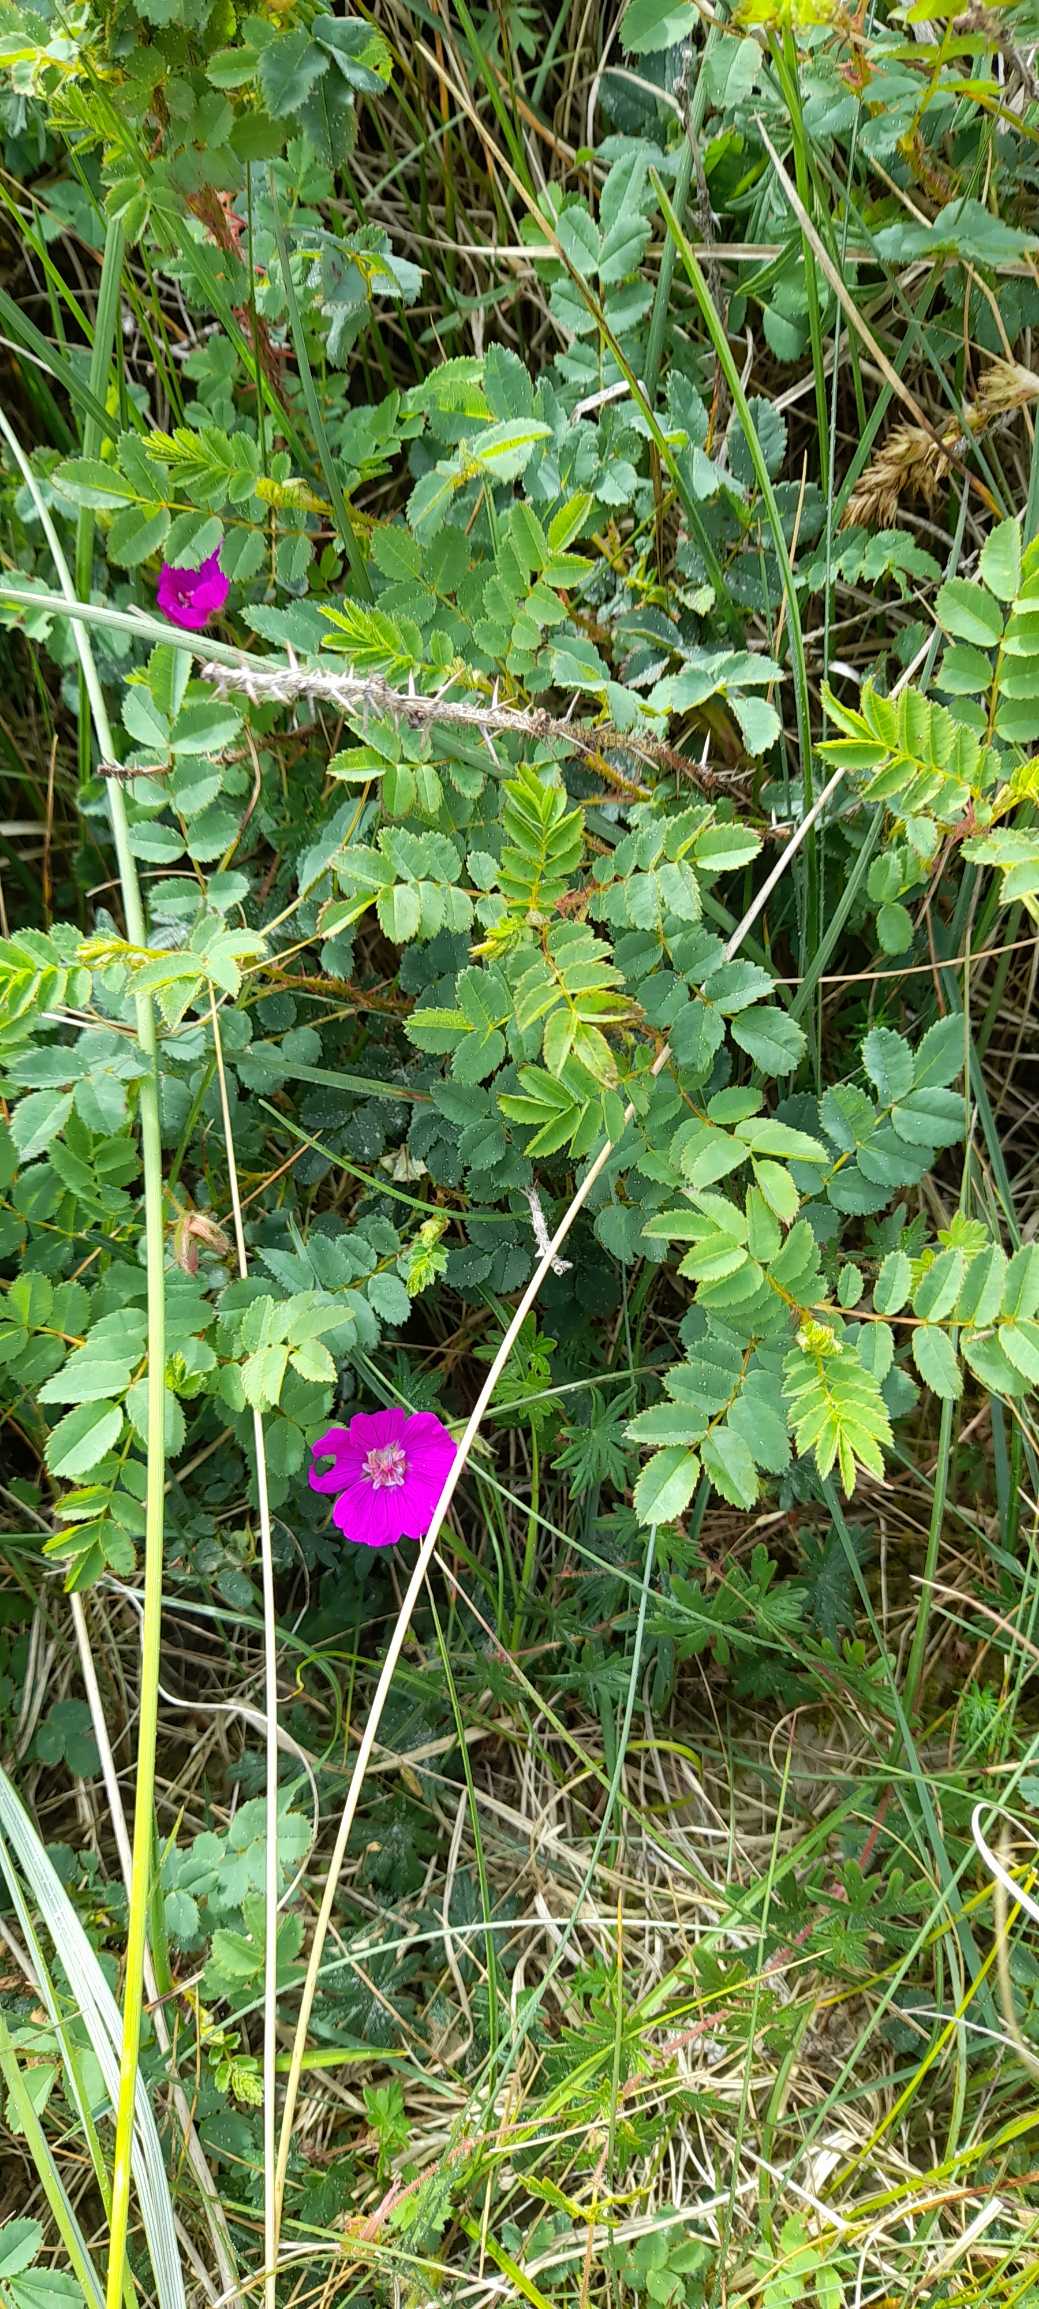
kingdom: Plantae
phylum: Tracheophyta
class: Magnoliopsida
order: Geraniales
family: Geraniaceae
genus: Geranium
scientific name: Geranium sanguineum
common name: Blodrød storkenæb
